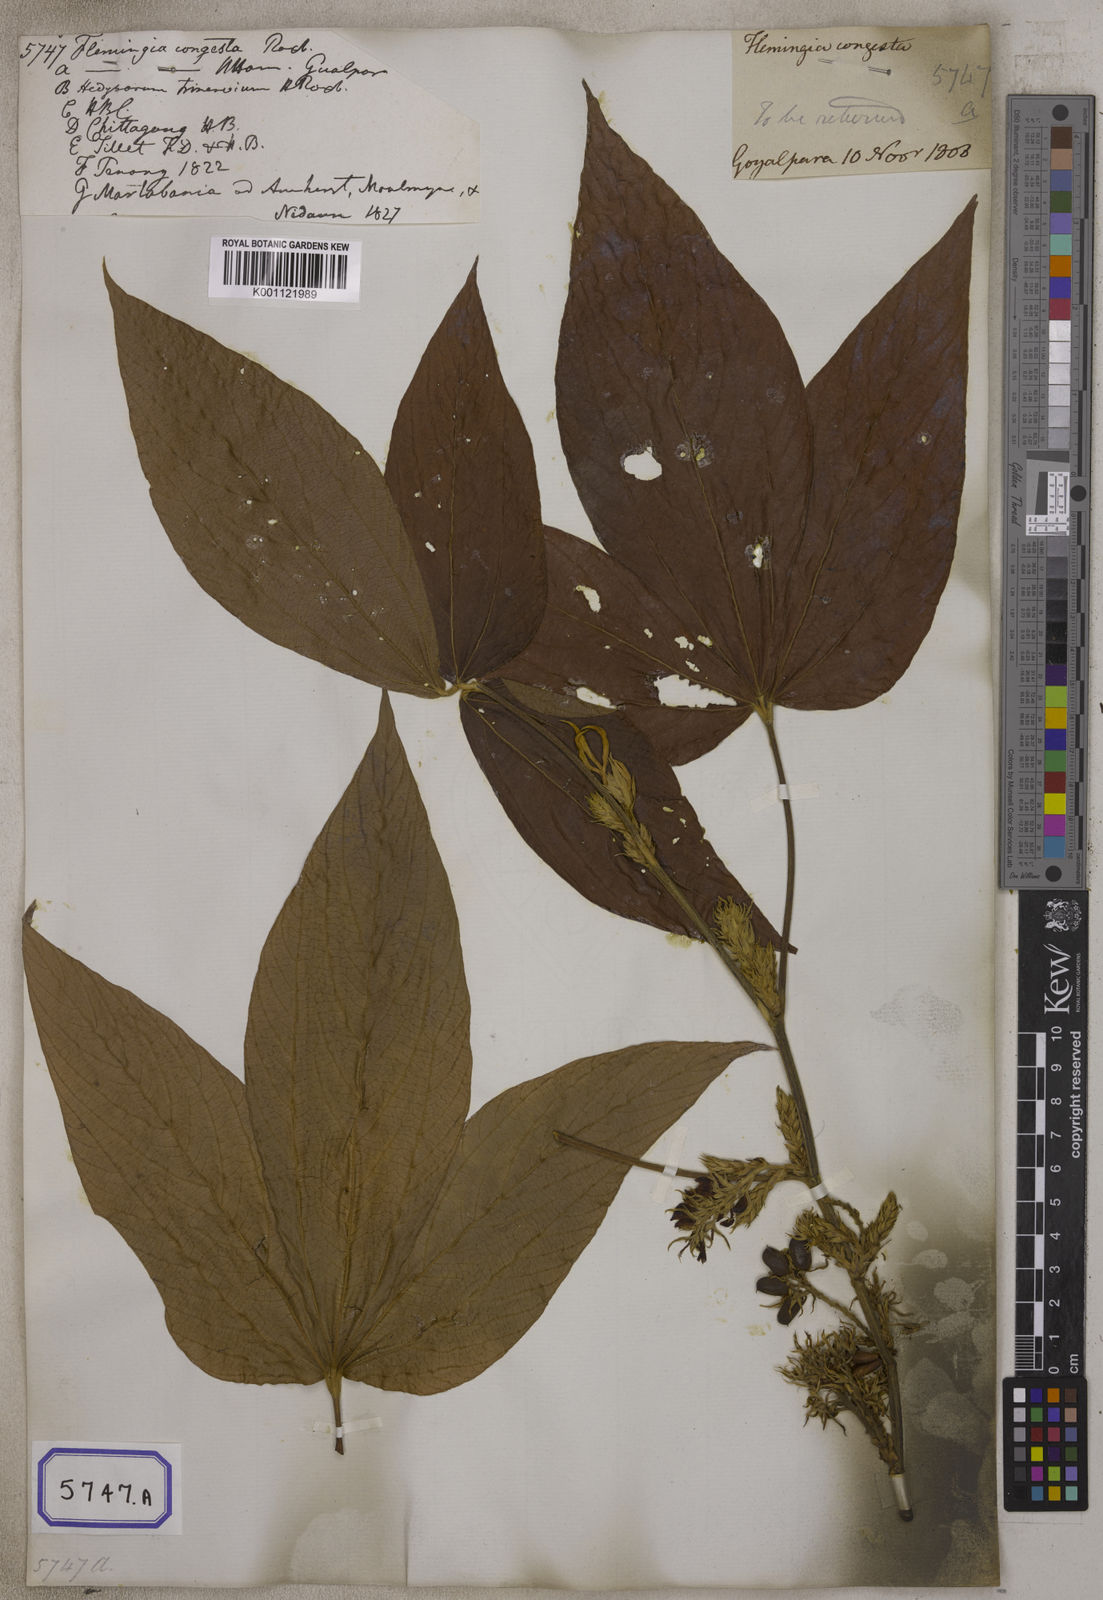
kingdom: Plantae
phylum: Tracheophyta
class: Magnoliopsida
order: Fabales
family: Fabaceae
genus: Flemingia
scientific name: Flemingia
